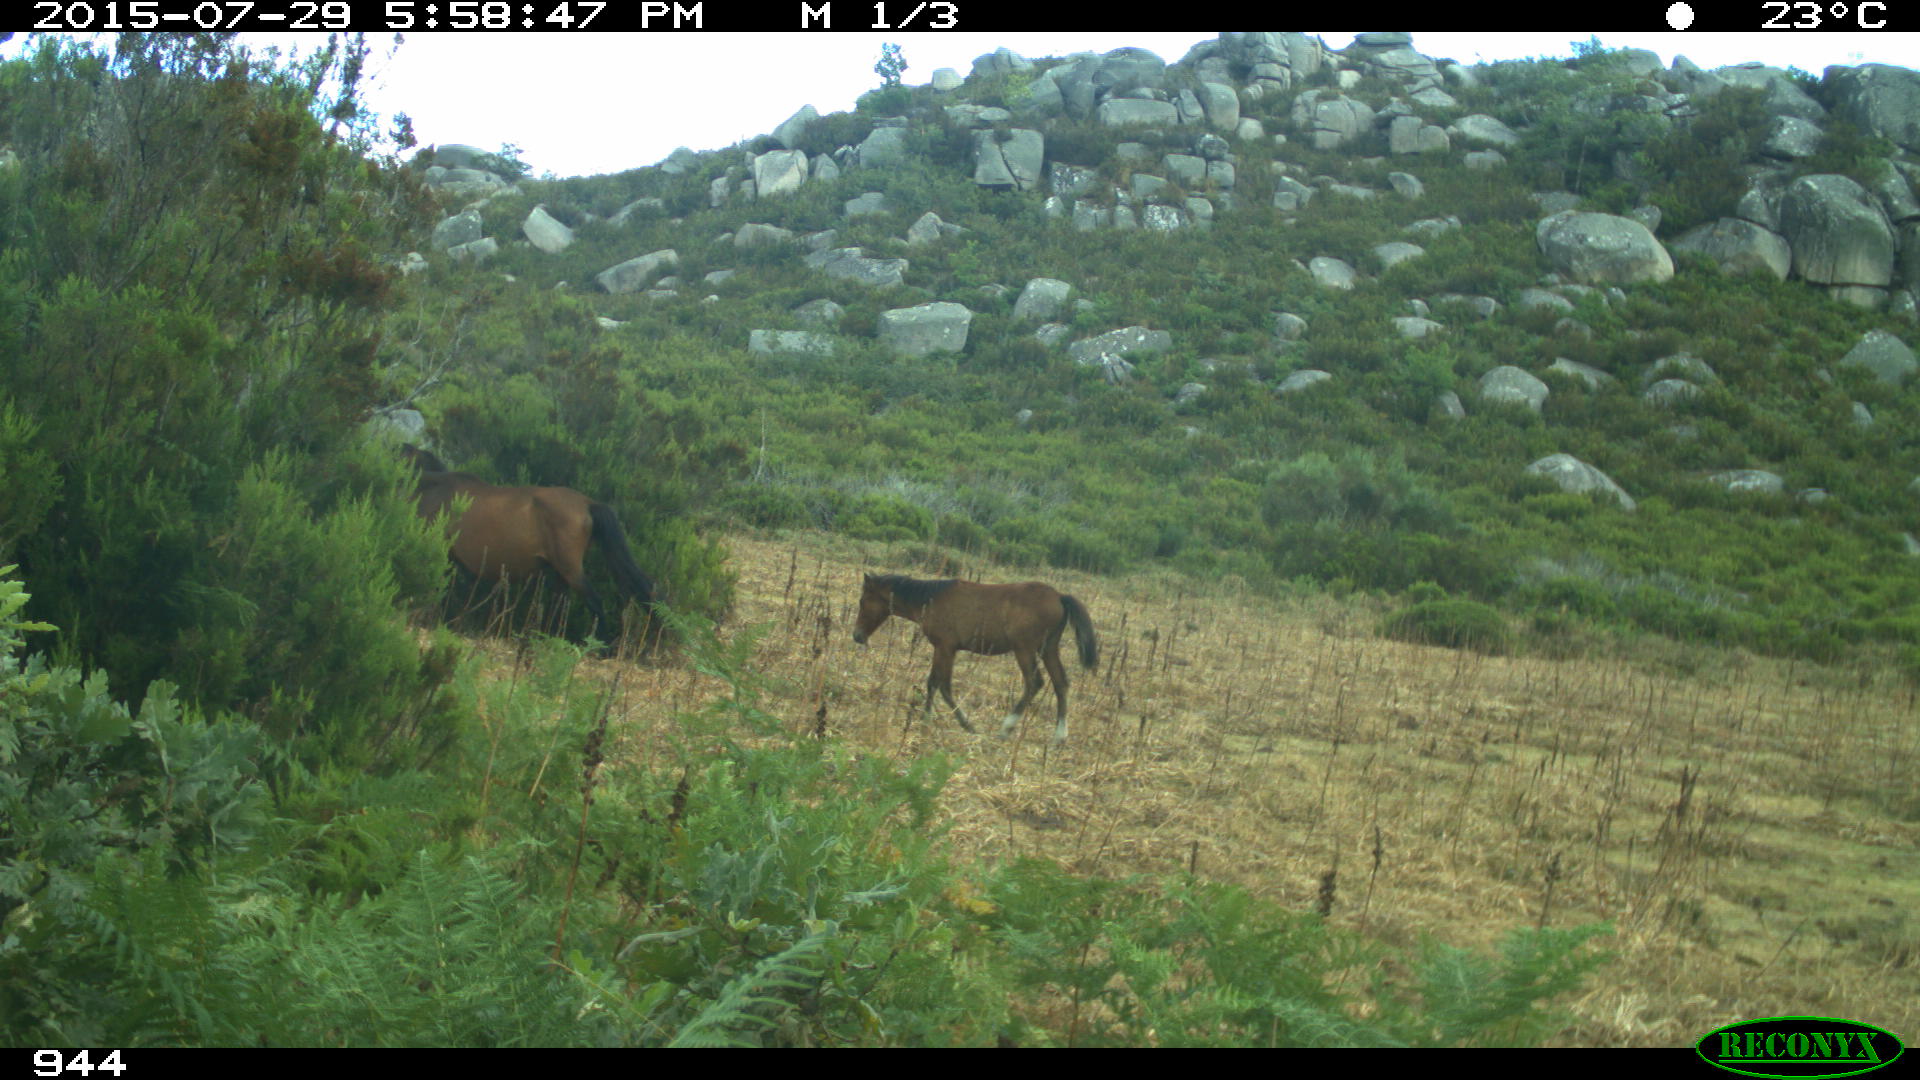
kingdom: Animalia
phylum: Chordata
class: Mammalia
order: Perissodactyla
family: Equidae
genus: Equus
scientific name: Equus caballus
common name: Horse
